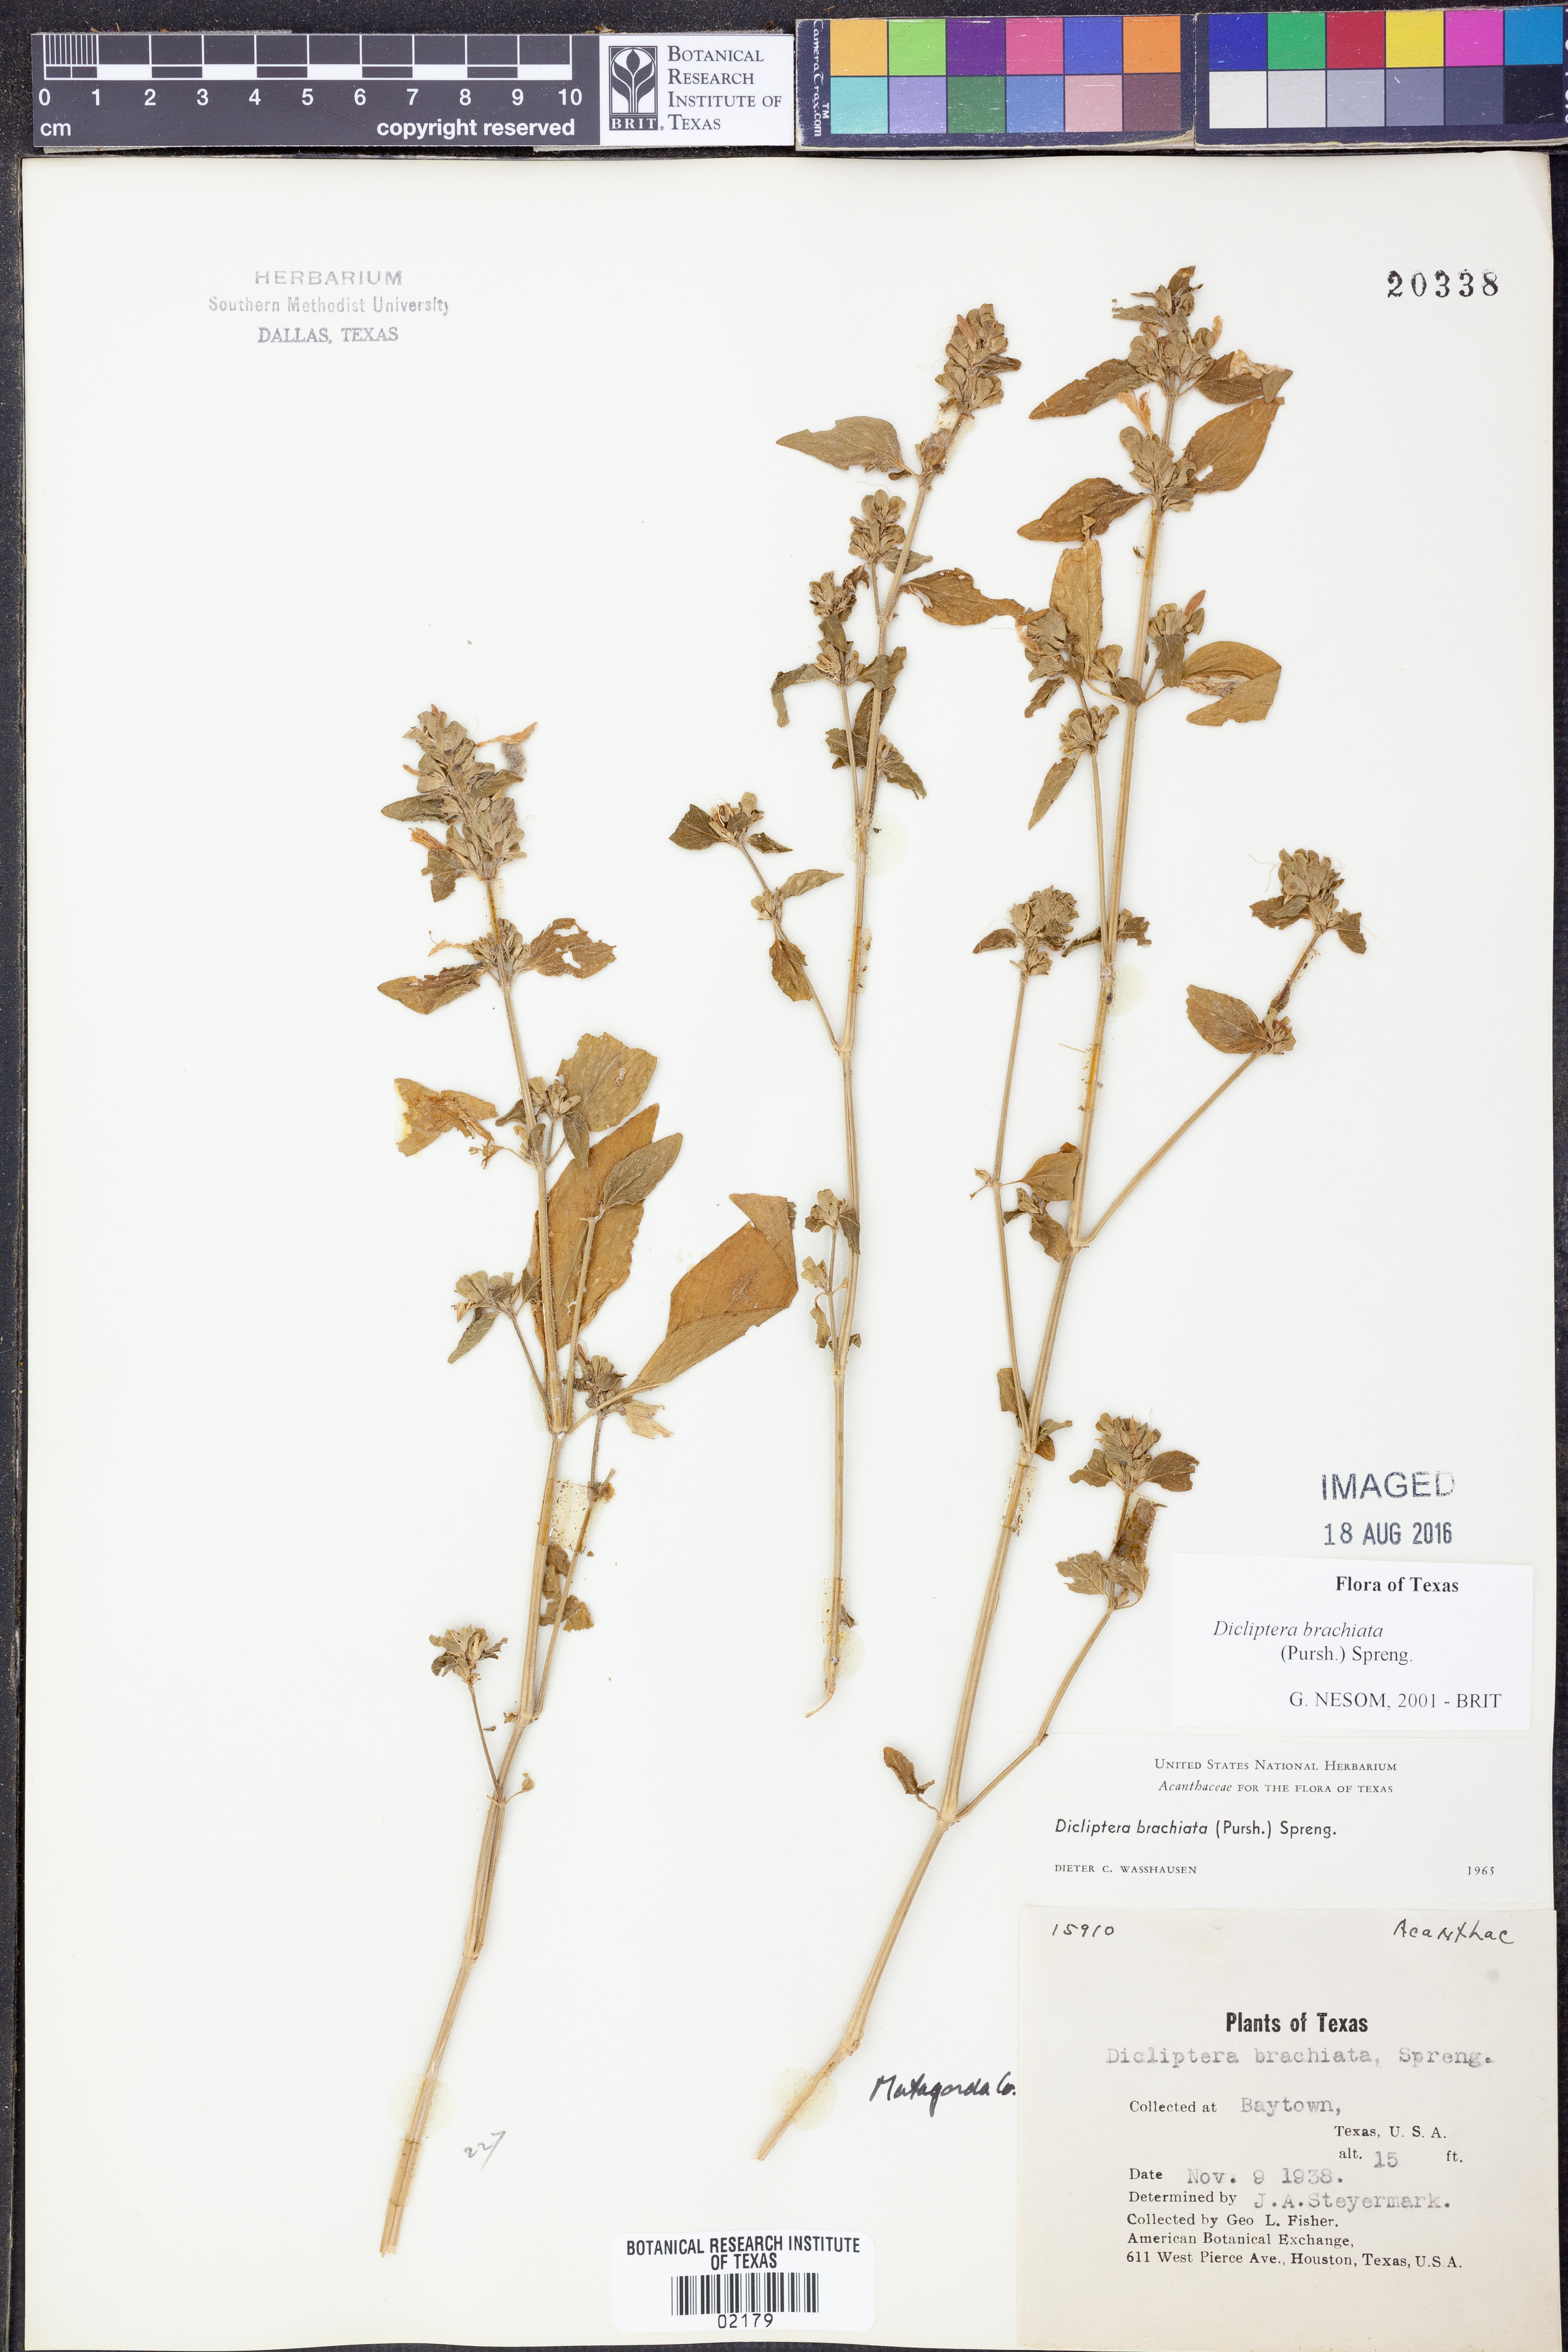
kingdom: Plantae
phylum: Tracheophyta
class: Magnoliopsida
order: Lamiales
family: Acanthaceae
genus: Dicliptera
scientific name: Dicliptera brachiata
